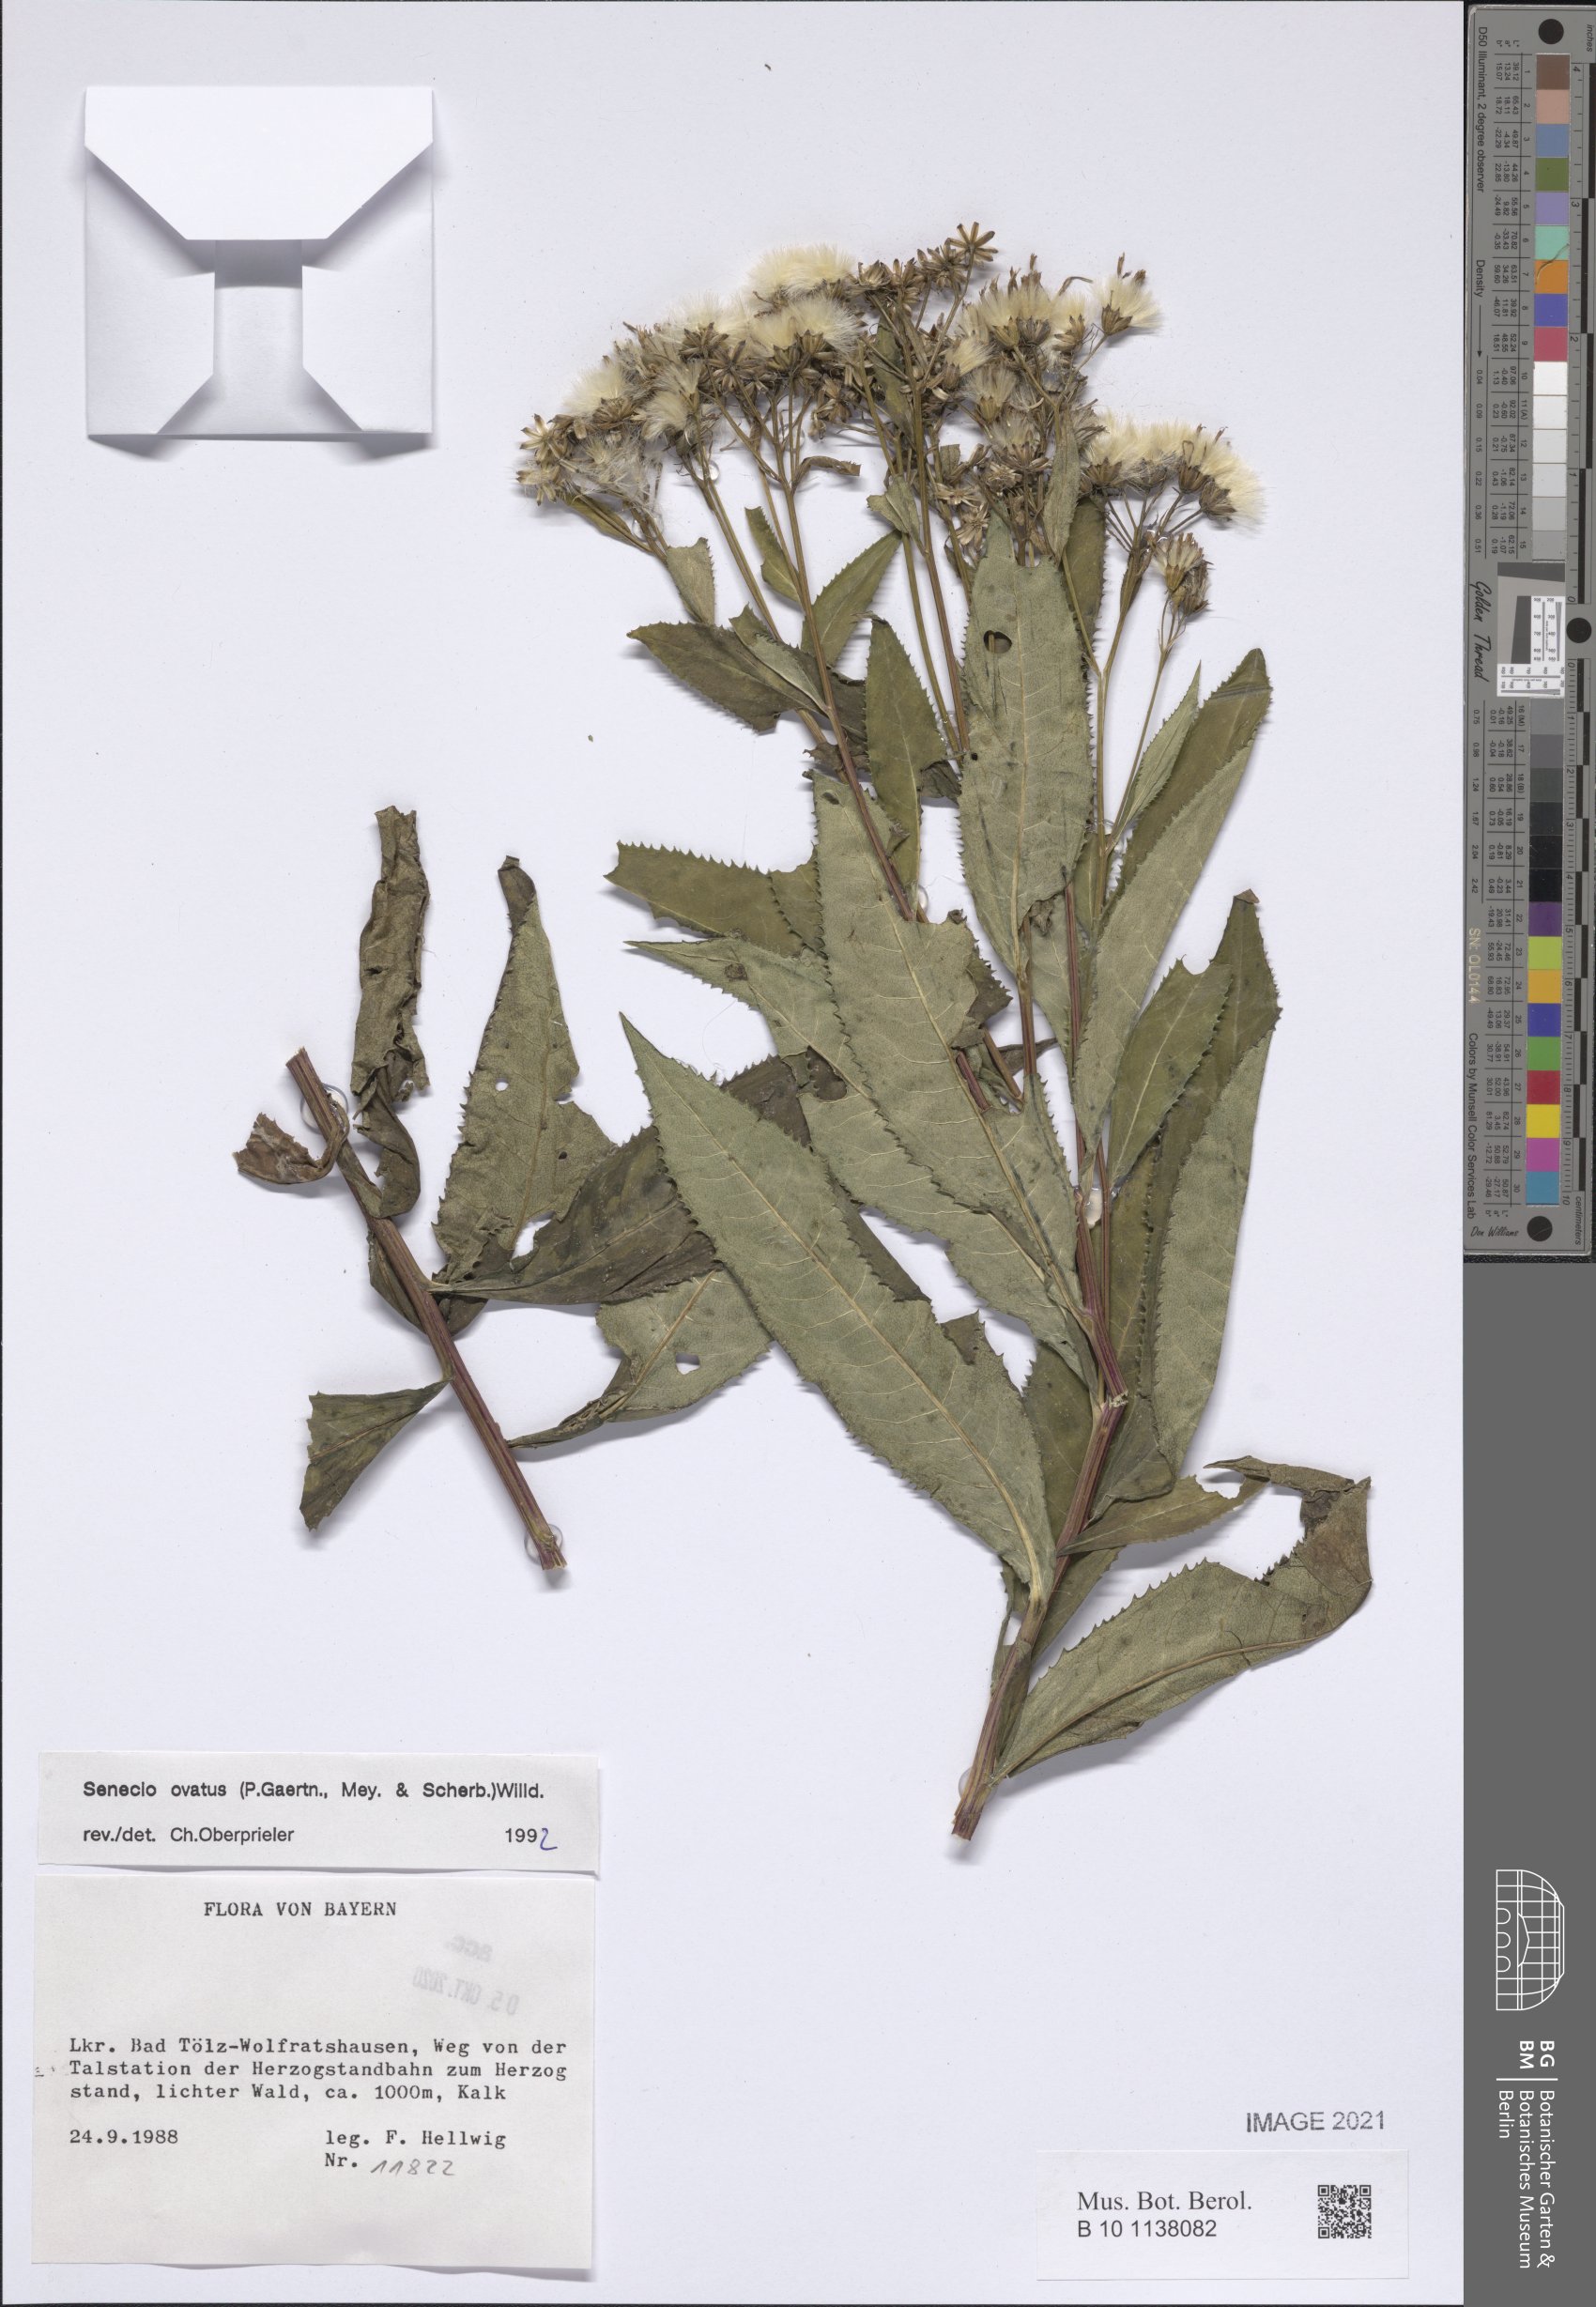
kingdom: Plantae
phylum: Tracheophyta
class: Magnoliopsida
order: Asterales
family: Asteraceae
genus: Senecio
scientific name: Senecio ovatus
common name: Wood ragwort
